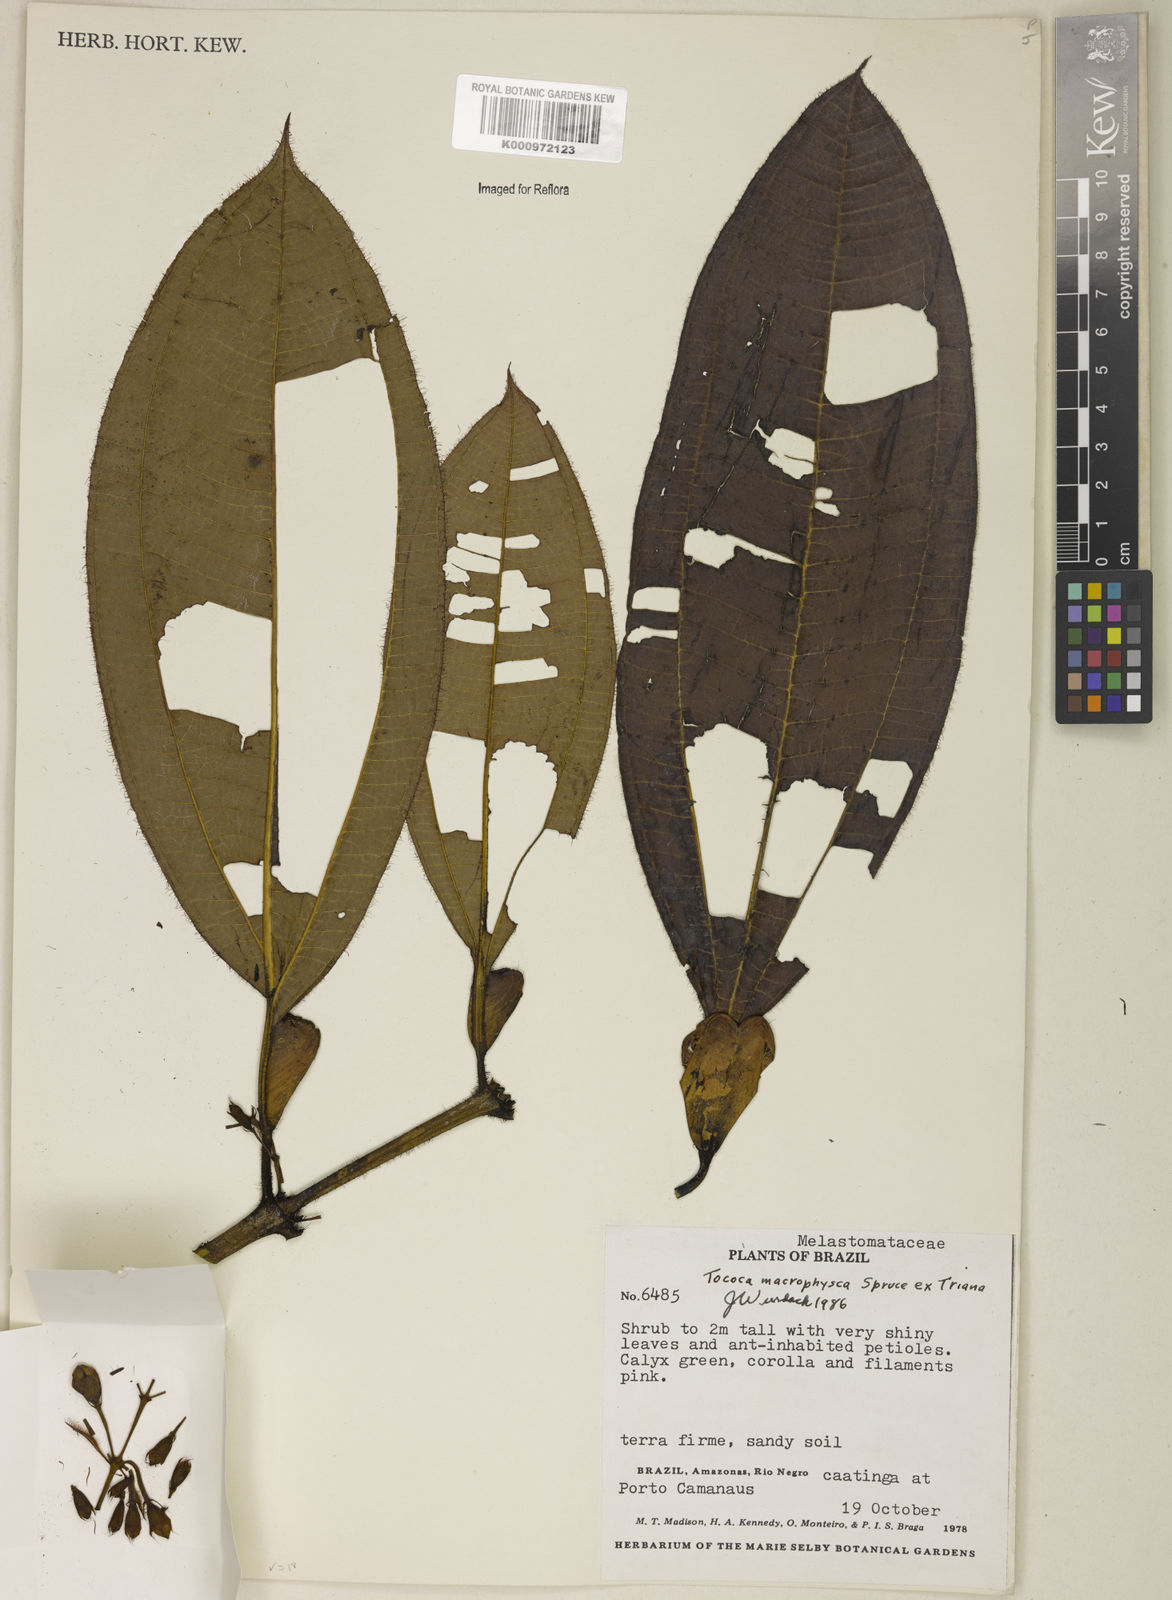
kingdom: Plantae
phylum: Tracheophyta
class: Magnoliopsida
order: Myrtales
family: Melastomataceae
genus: Miconia
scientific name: Miconia macrophysca
